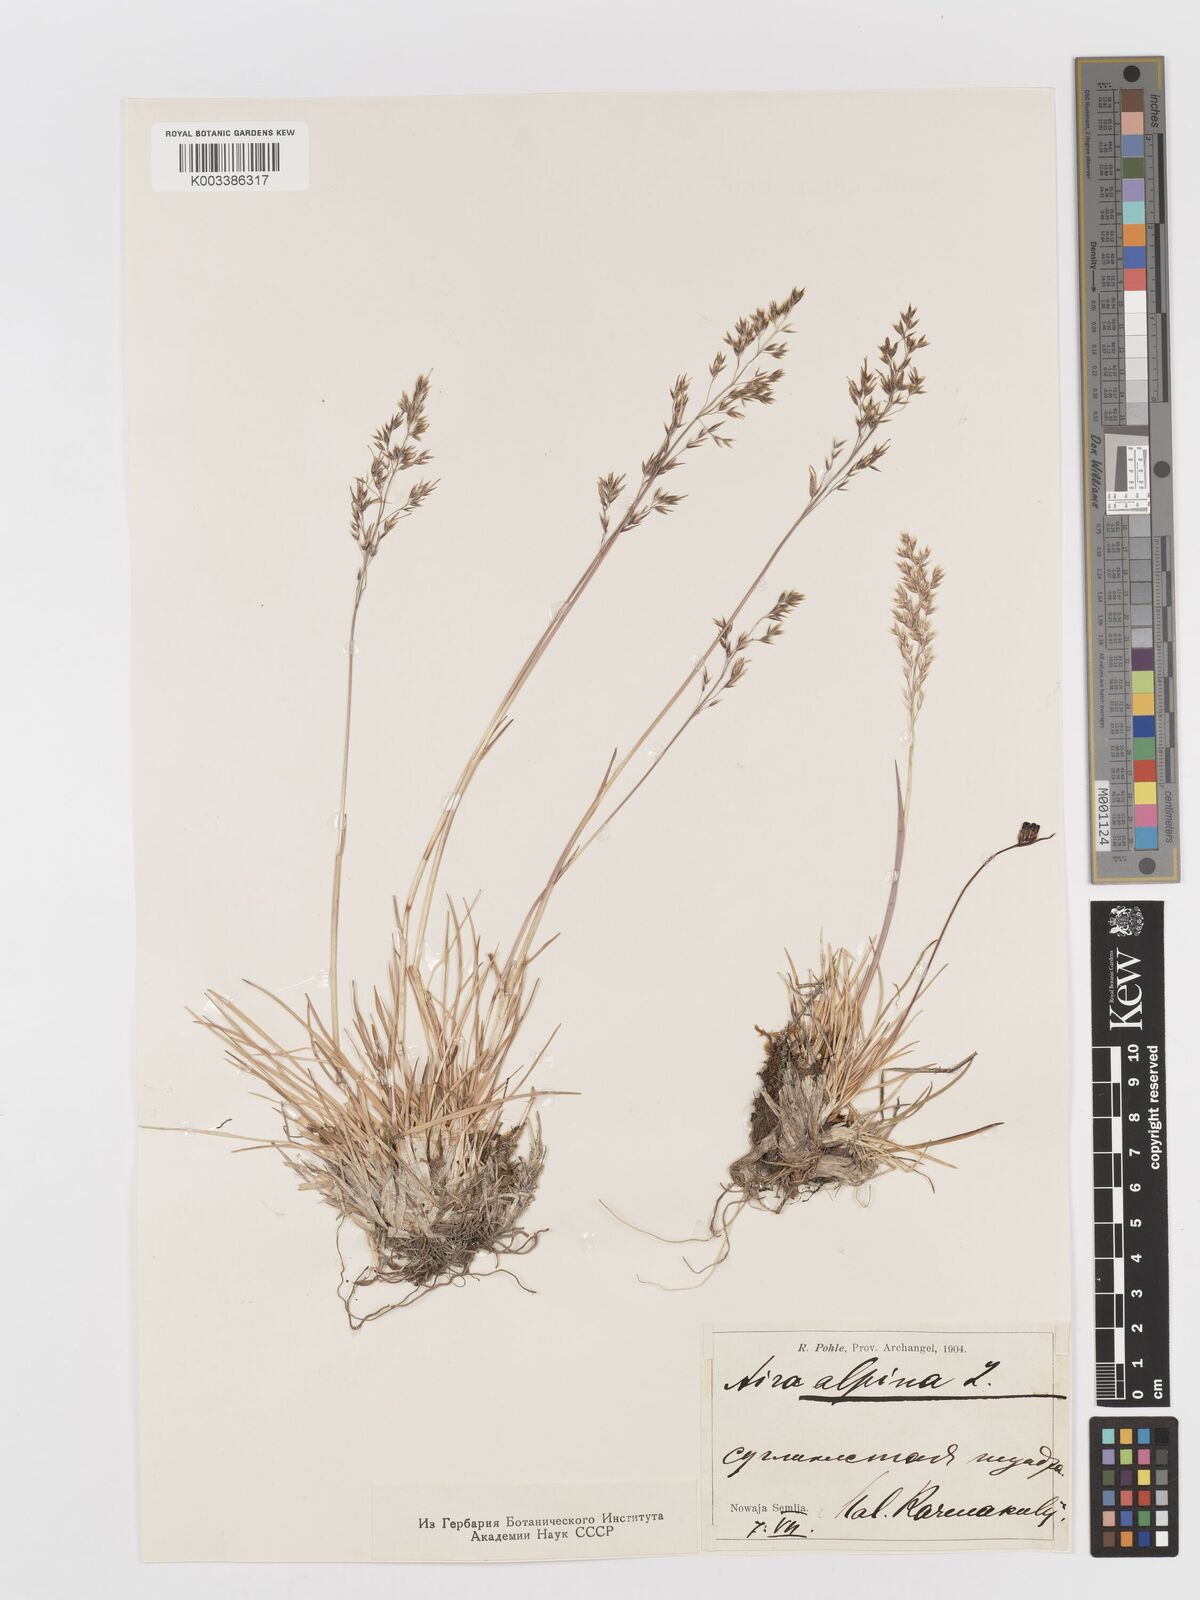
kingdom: Plantae
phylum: Tracheophyta
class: Liliopsida
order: Poales
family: Poaceae
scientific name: Poaceae
